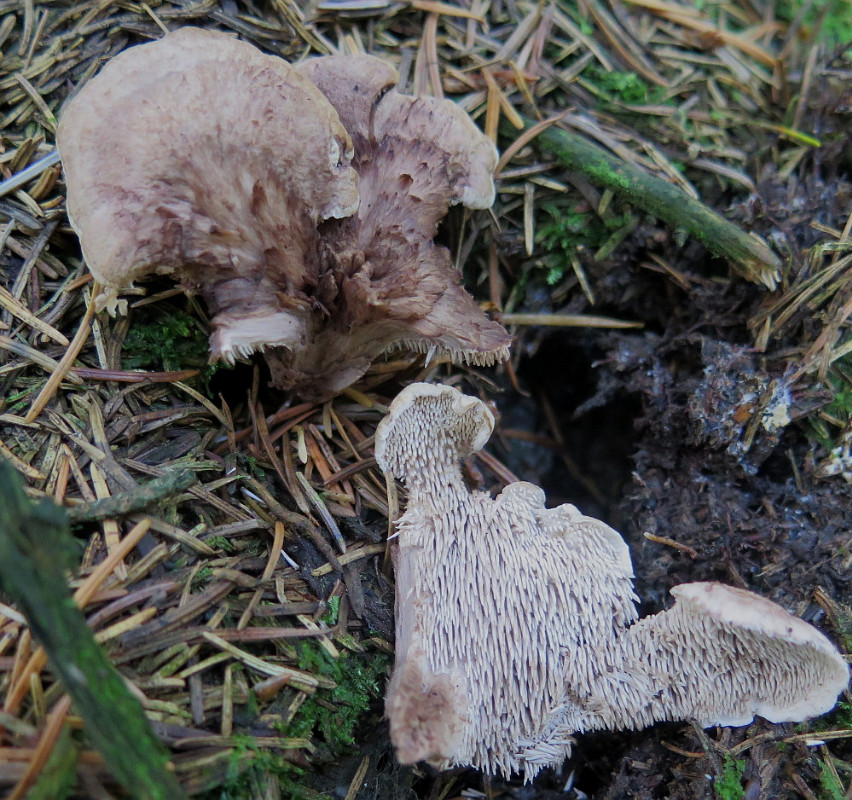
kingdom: Fungi
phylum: Basidiomycota
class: Agaricomycetes
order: Thelephorales
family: Thelephoraceae
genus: Phellodon
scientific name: Phellodon violascens
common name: violetbrun duftpigsvamp
